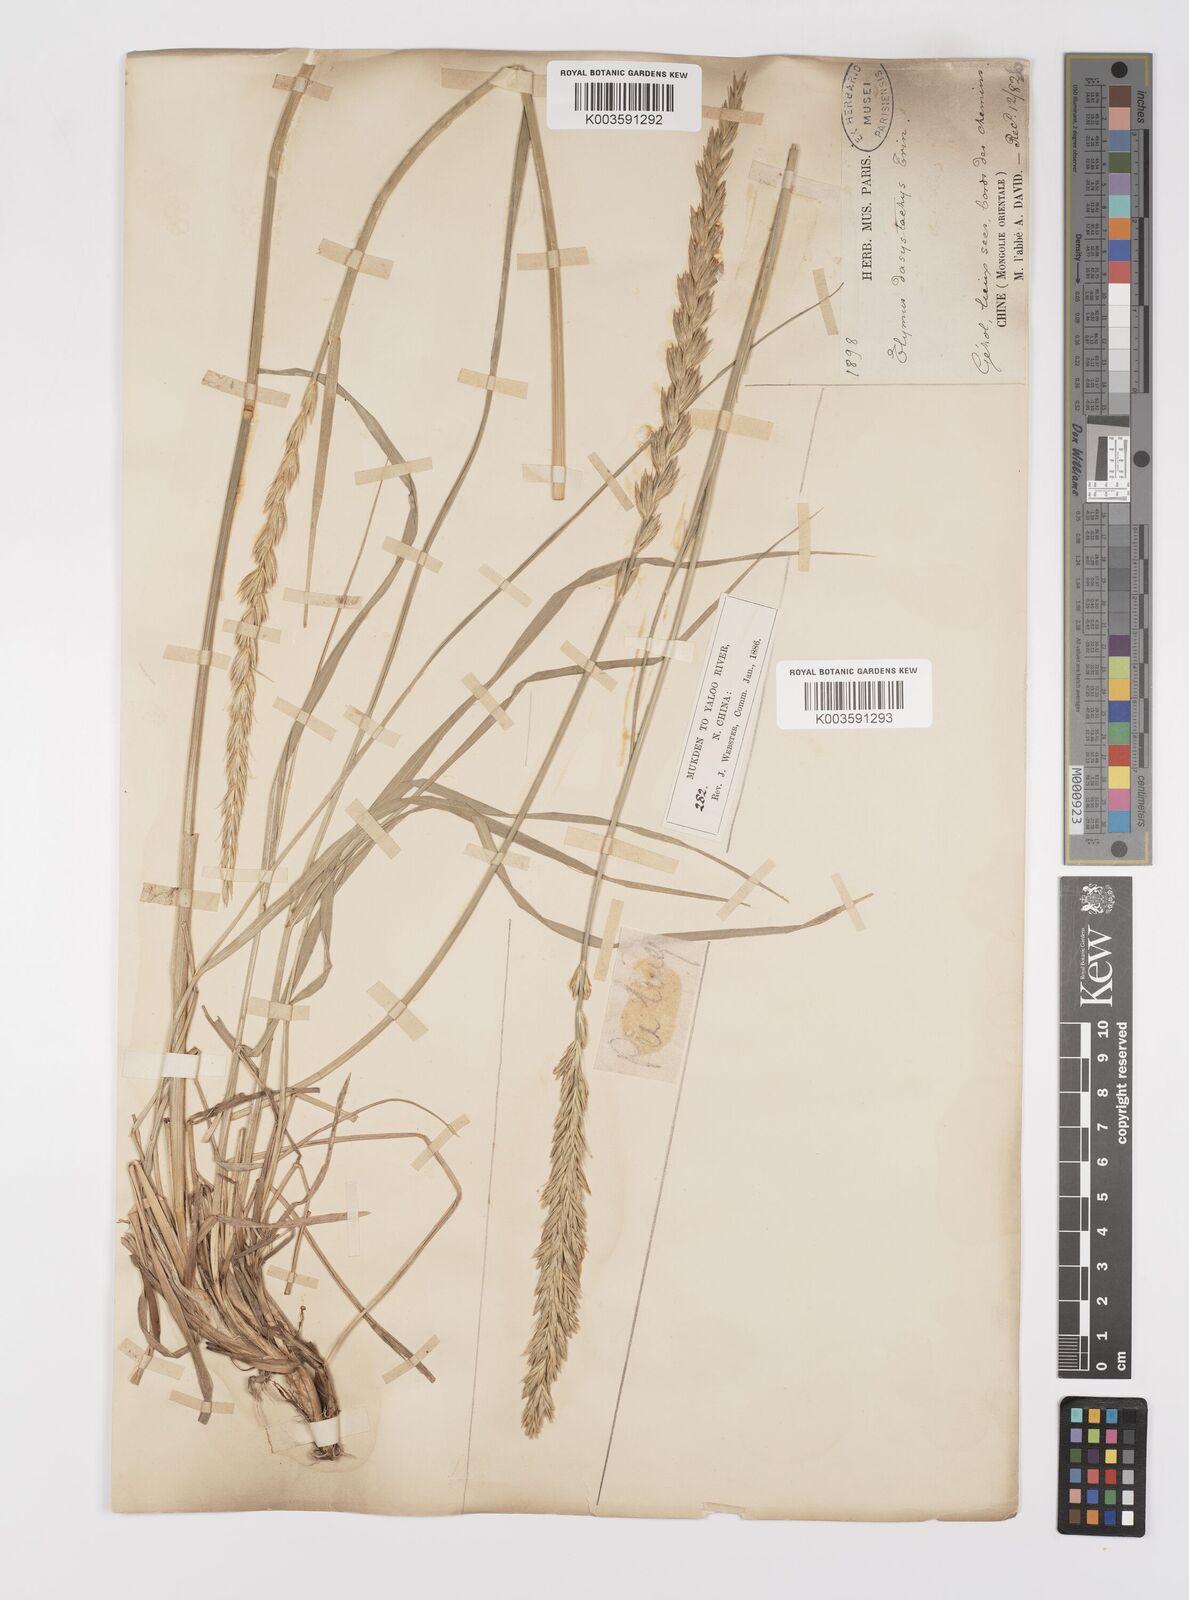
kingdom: Plantae
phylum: Tracheophyta
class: Liliopsida
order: Poales
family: Poaceae
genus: Leymus
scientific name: Leymus secalinus
